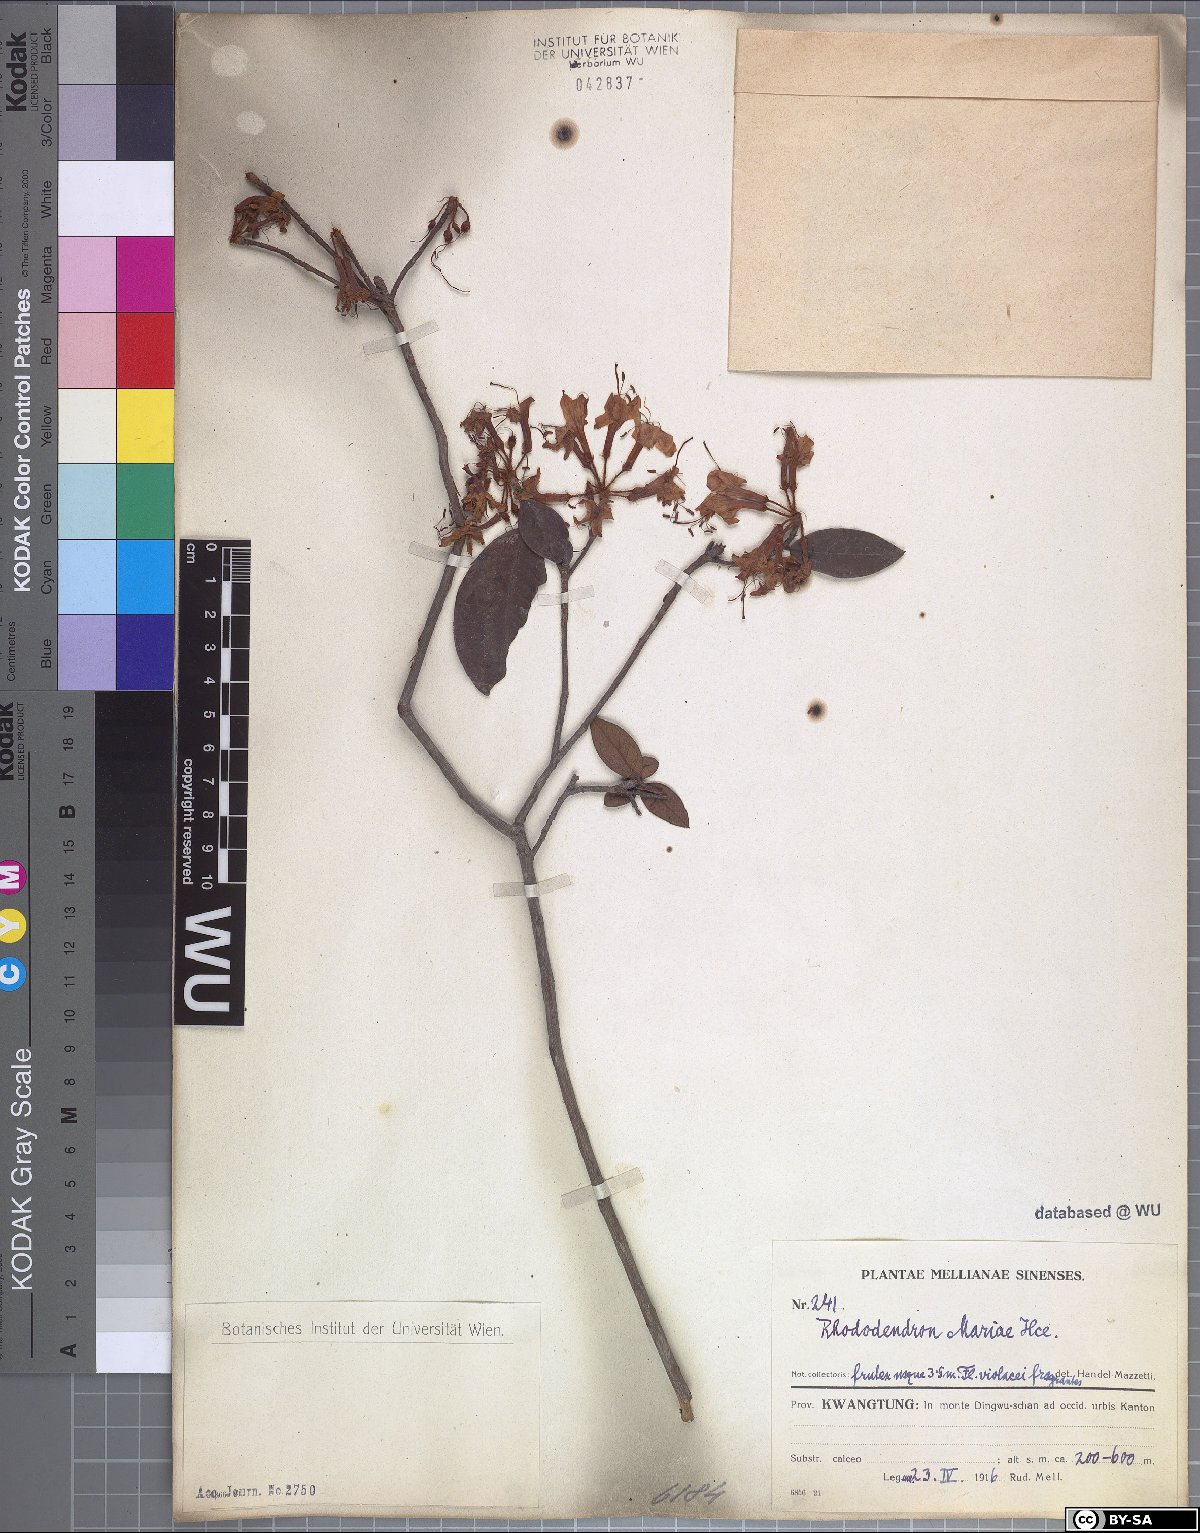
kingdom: Plantae
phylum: Tracheophyta
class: Magnoliopsida
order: Ericales
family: Ericaceae
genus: Rhododendron
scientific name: Rhododendron mariae
